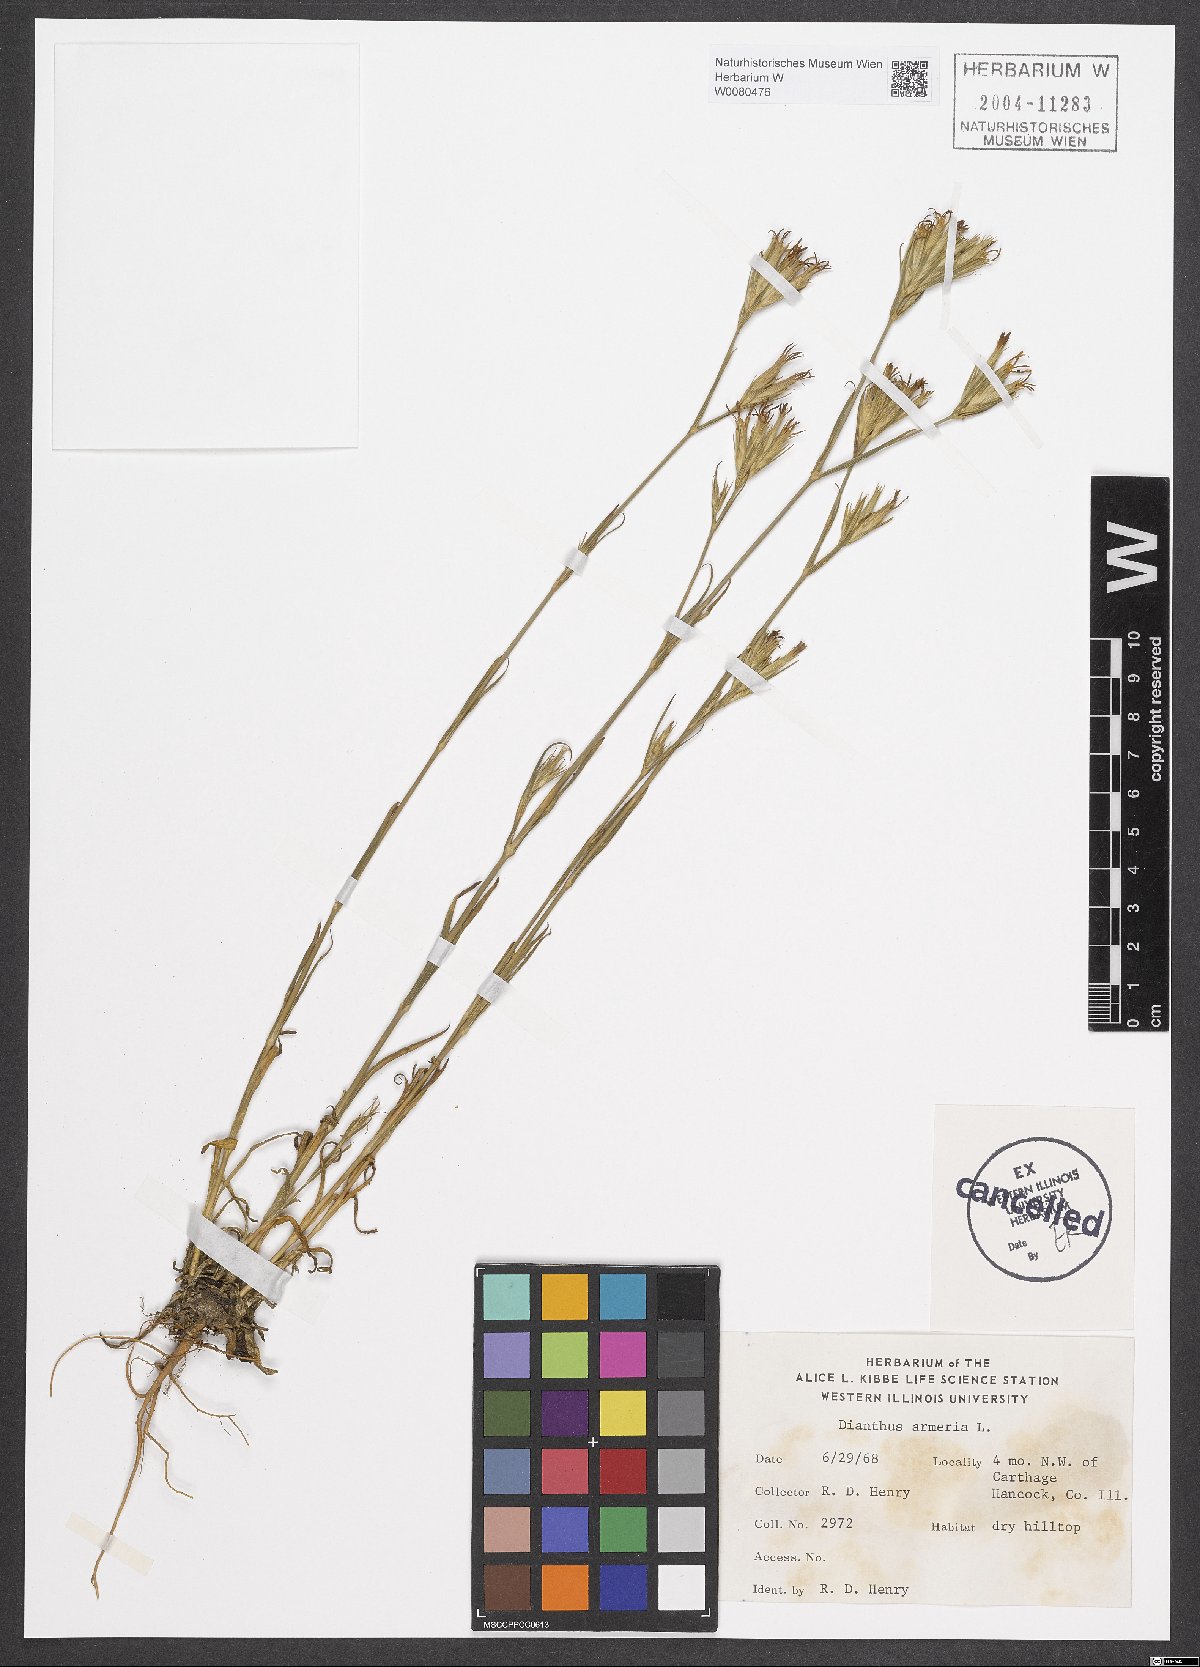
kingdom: Plantae
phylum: Tracheophyta
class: Magnoliopsida
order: Caryophyllales
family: Caryophyllaceae
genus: Dianthus
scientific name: Dianthus armeria
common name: Deptford pink
